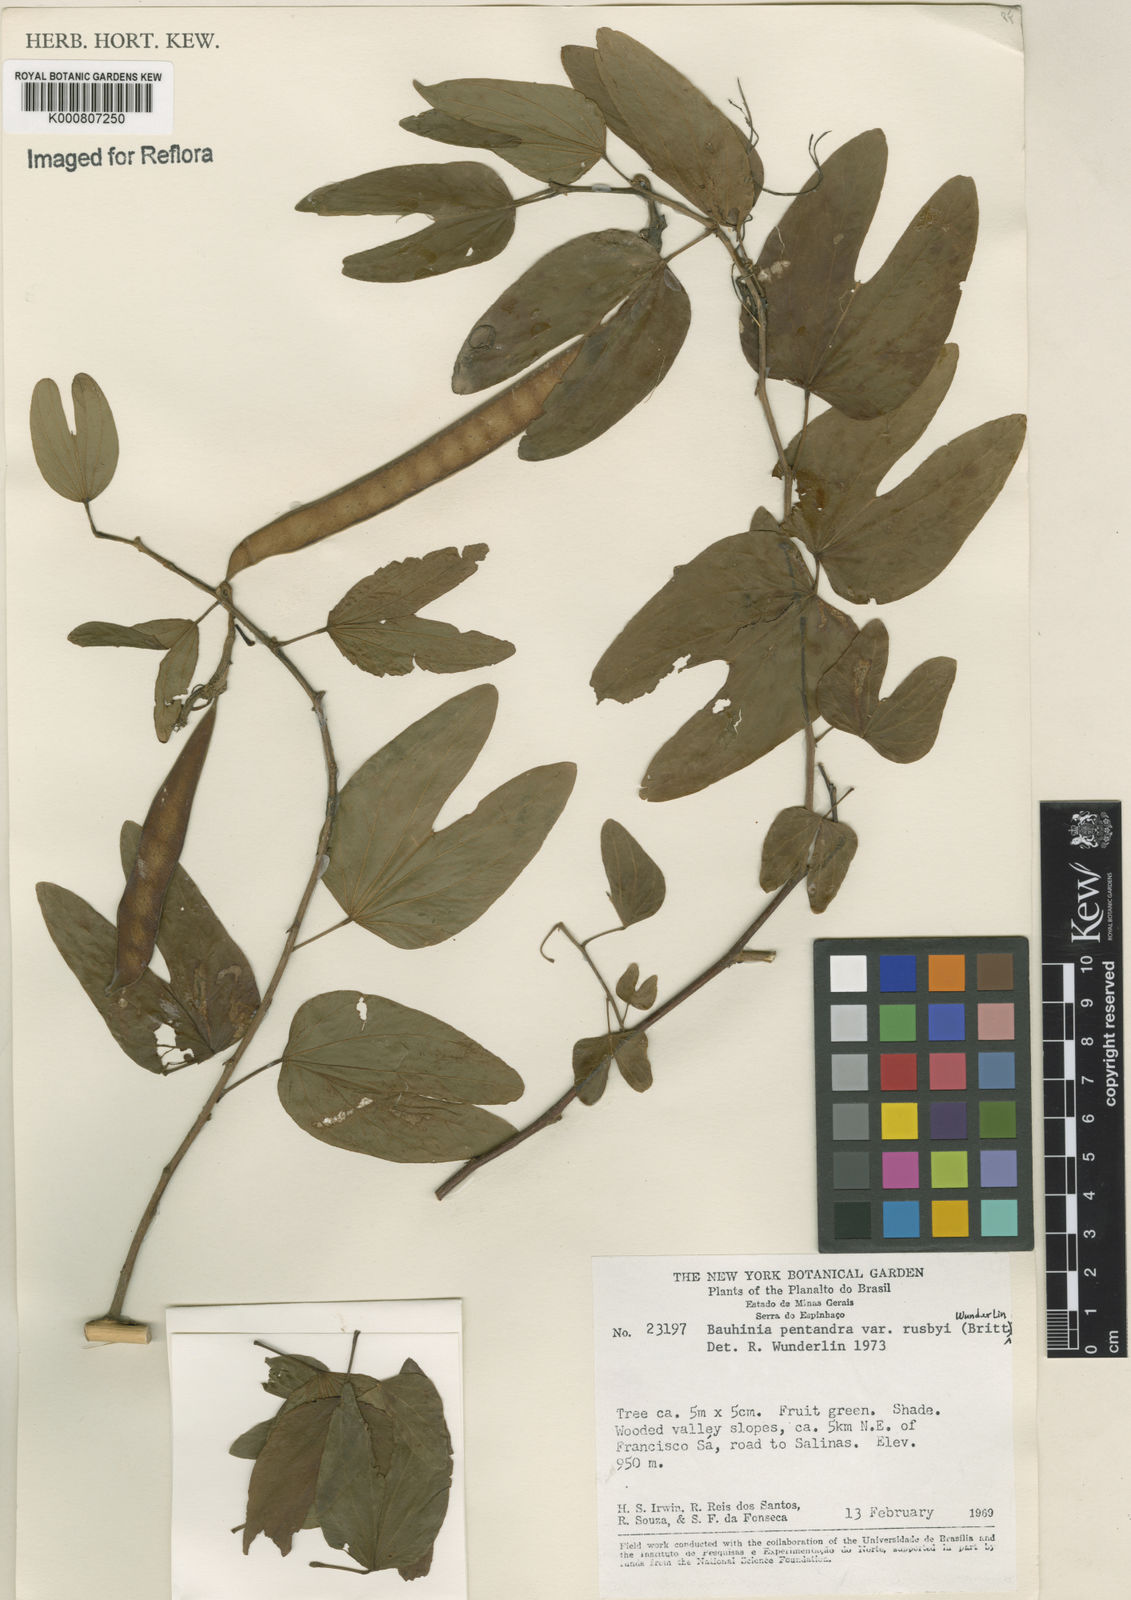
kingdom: Plantae
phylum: Tracheophyta
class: Magnoliopsida
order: Fabales
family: Fabaceae
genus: Bauhinia
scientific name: Bauhinia
